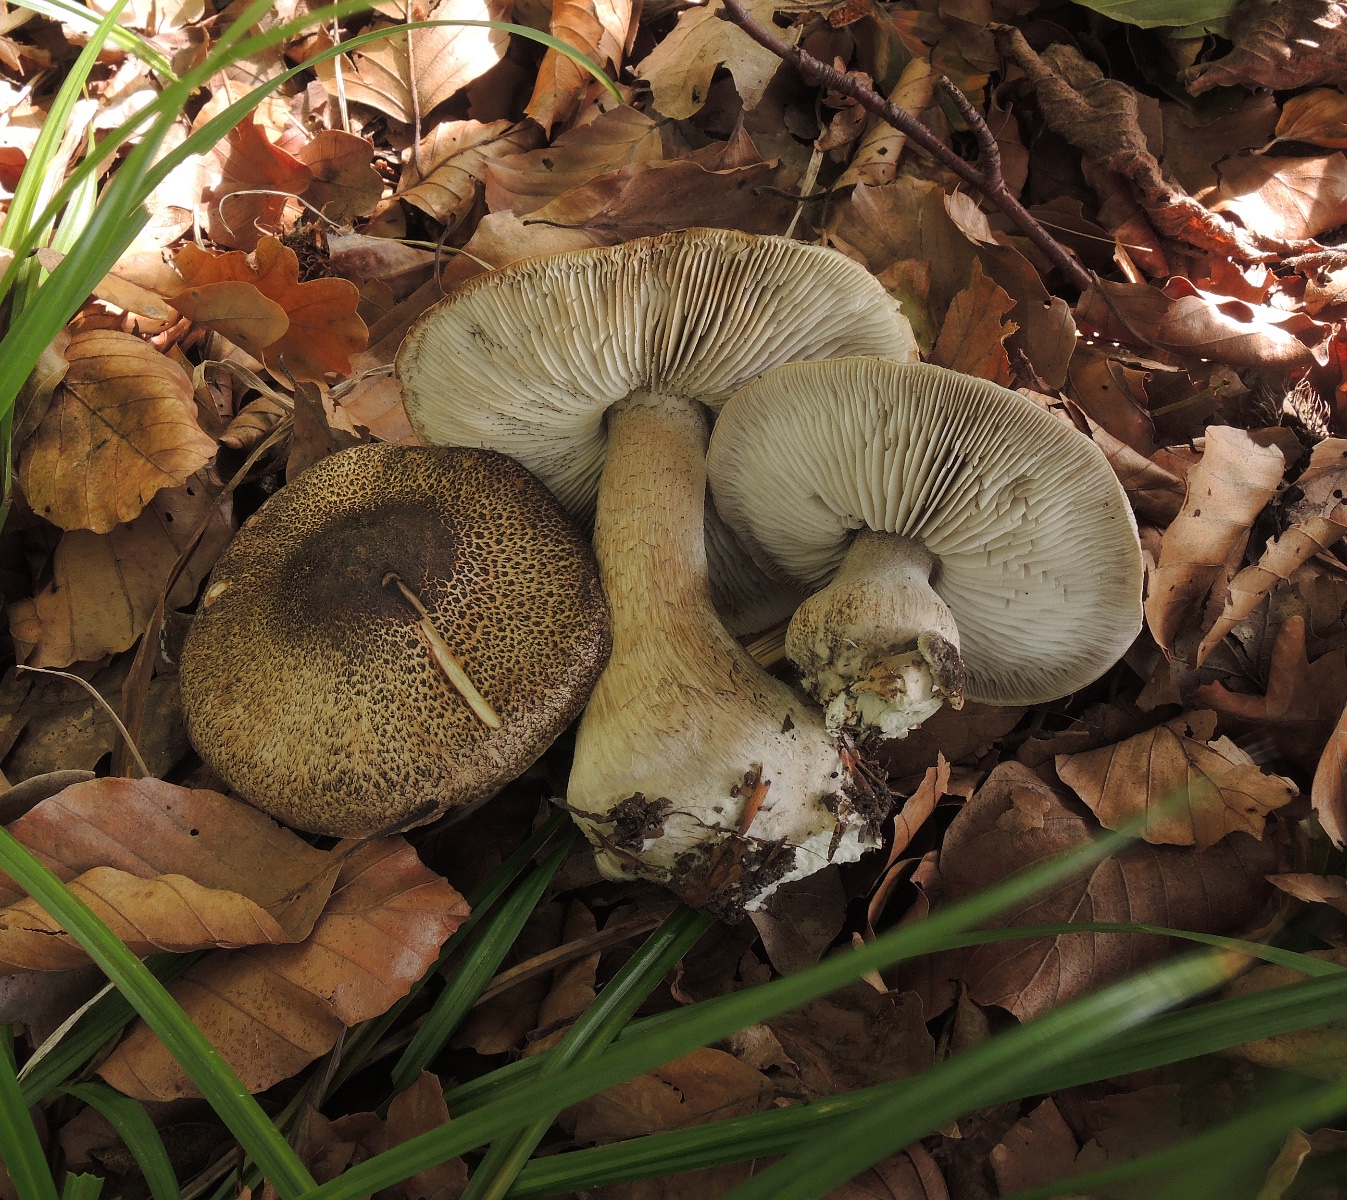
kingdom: Fungi
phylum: Basidiomycota
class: Agaricomycetes
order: Agaricales
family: Tricholomataceae
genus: Tricholoma
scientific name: Tricholoma atrosquamosum
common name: sortskællet ridderhat
